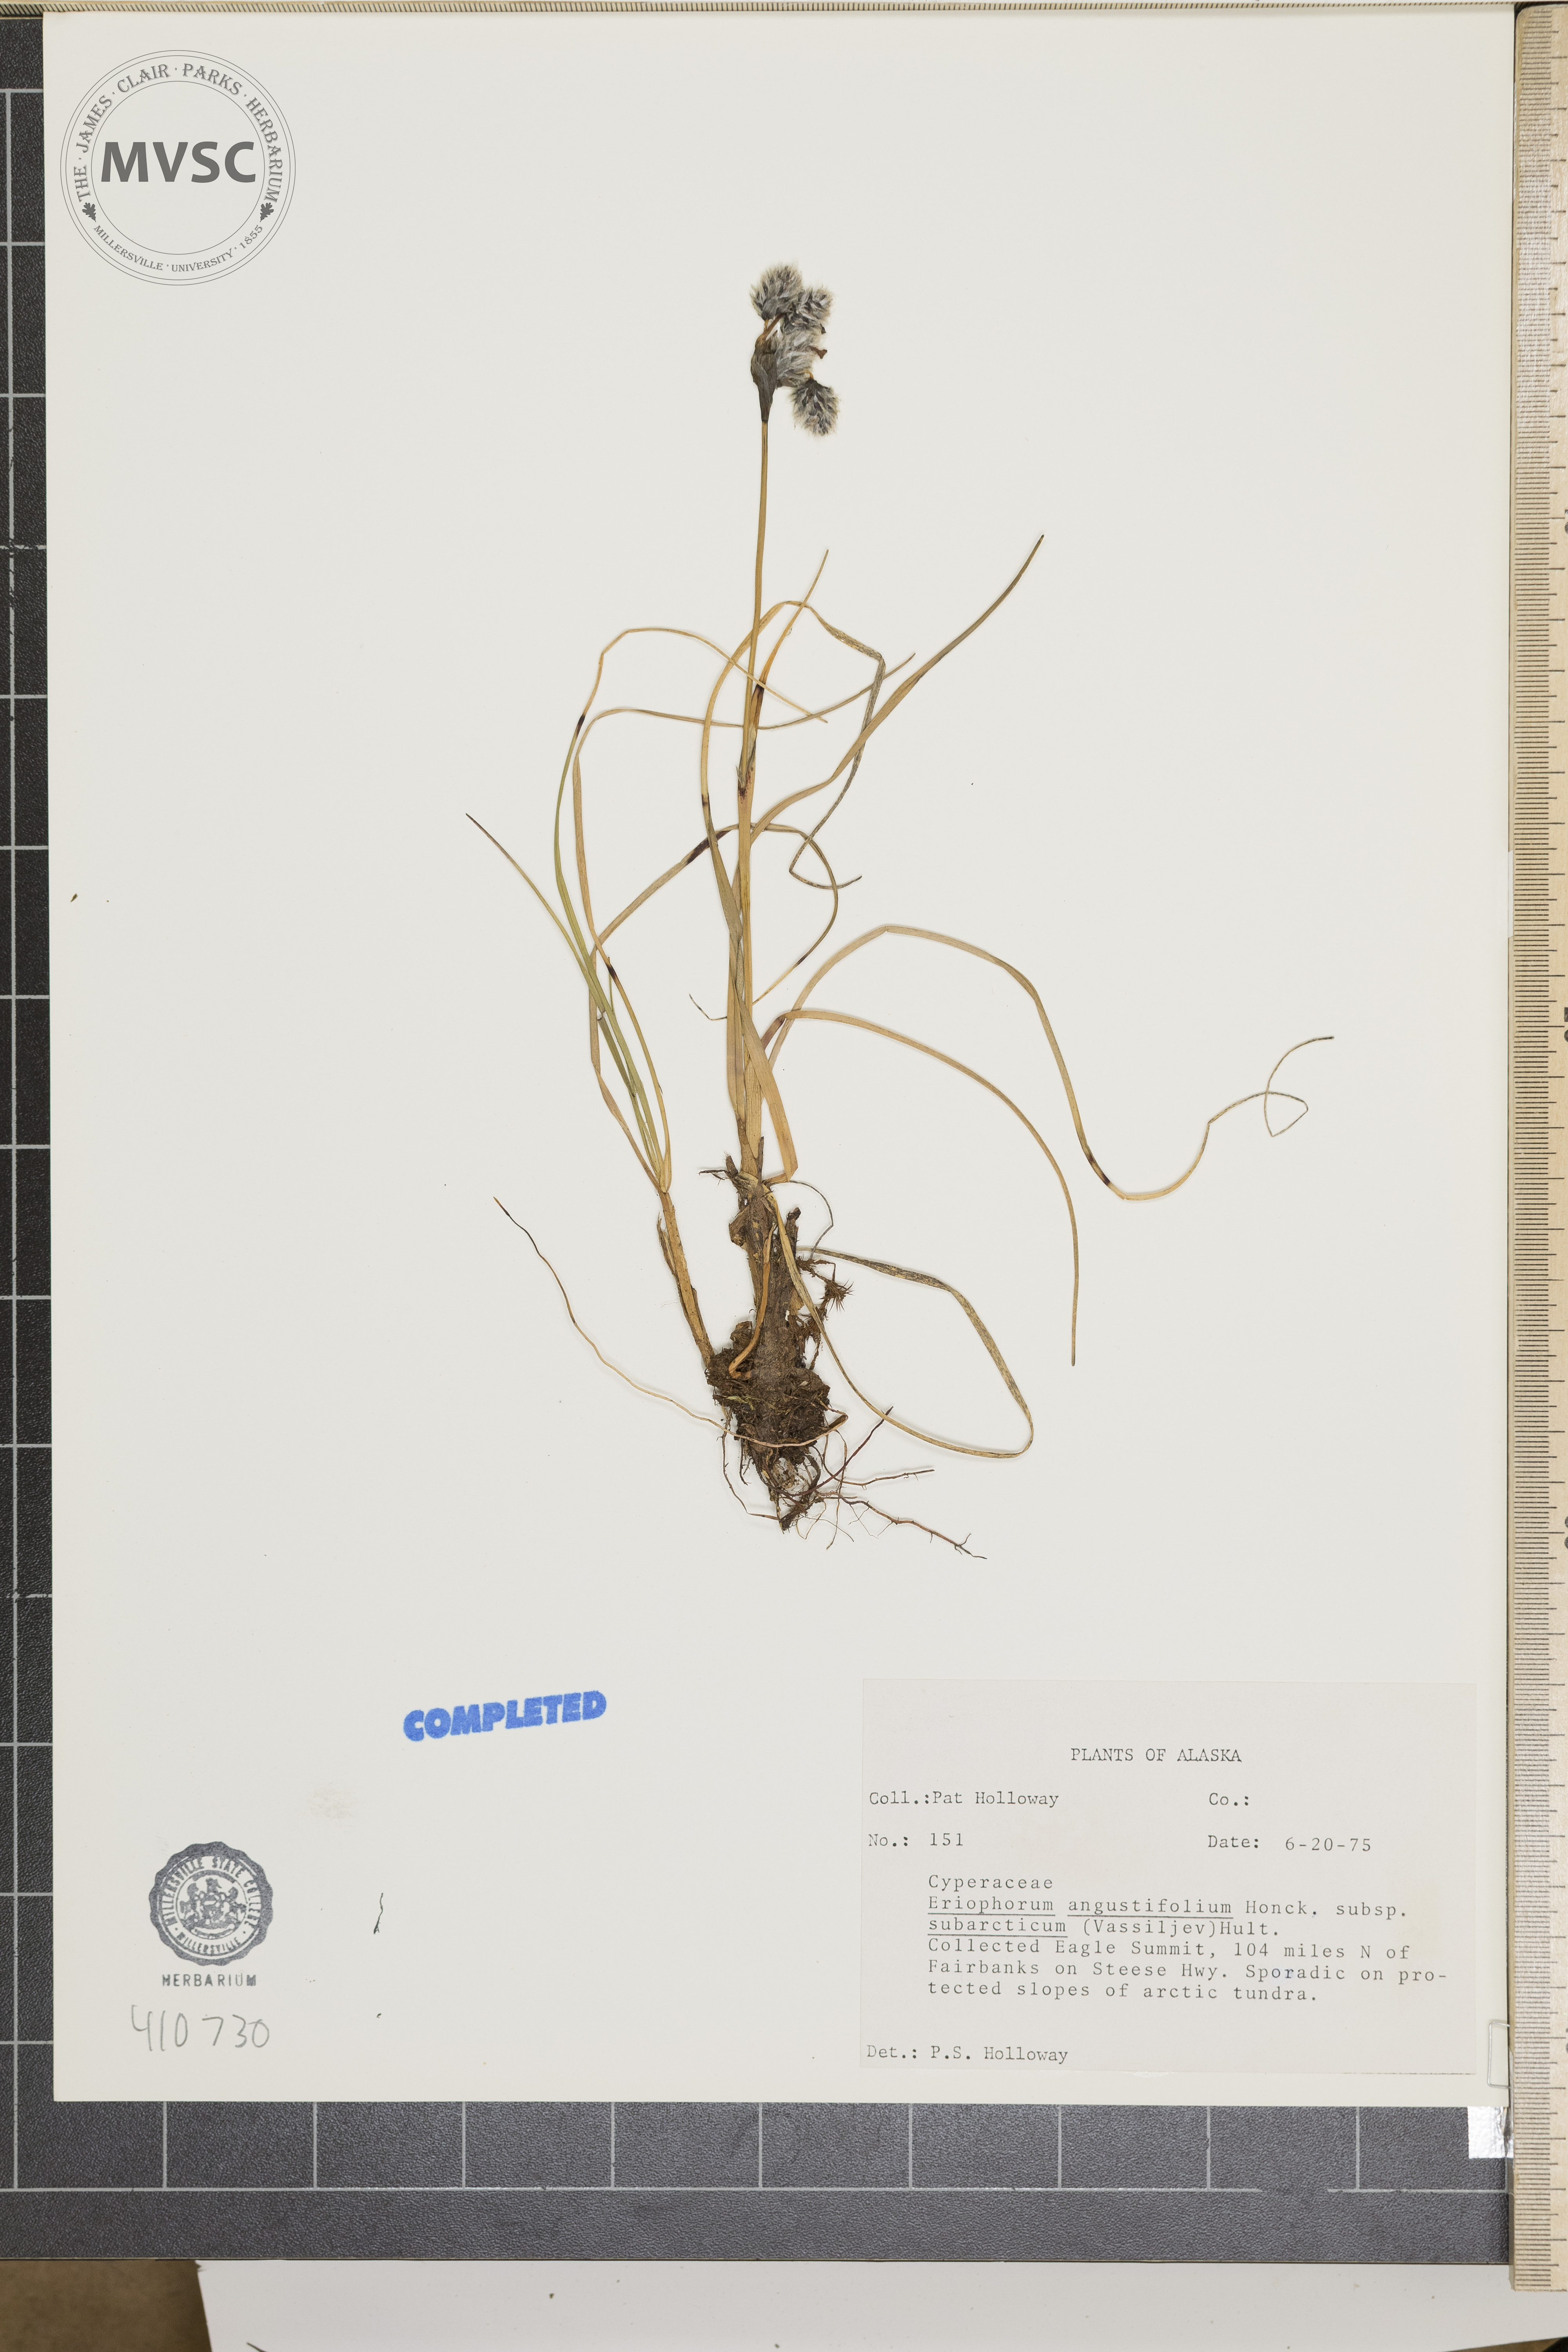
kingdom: Plantae
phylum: Tracheophyta
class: Liliopsida
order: Poales
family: Cyperaceae
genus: Eriophorum
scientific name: Eriophorum angustifolium
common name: Common cottongrass
